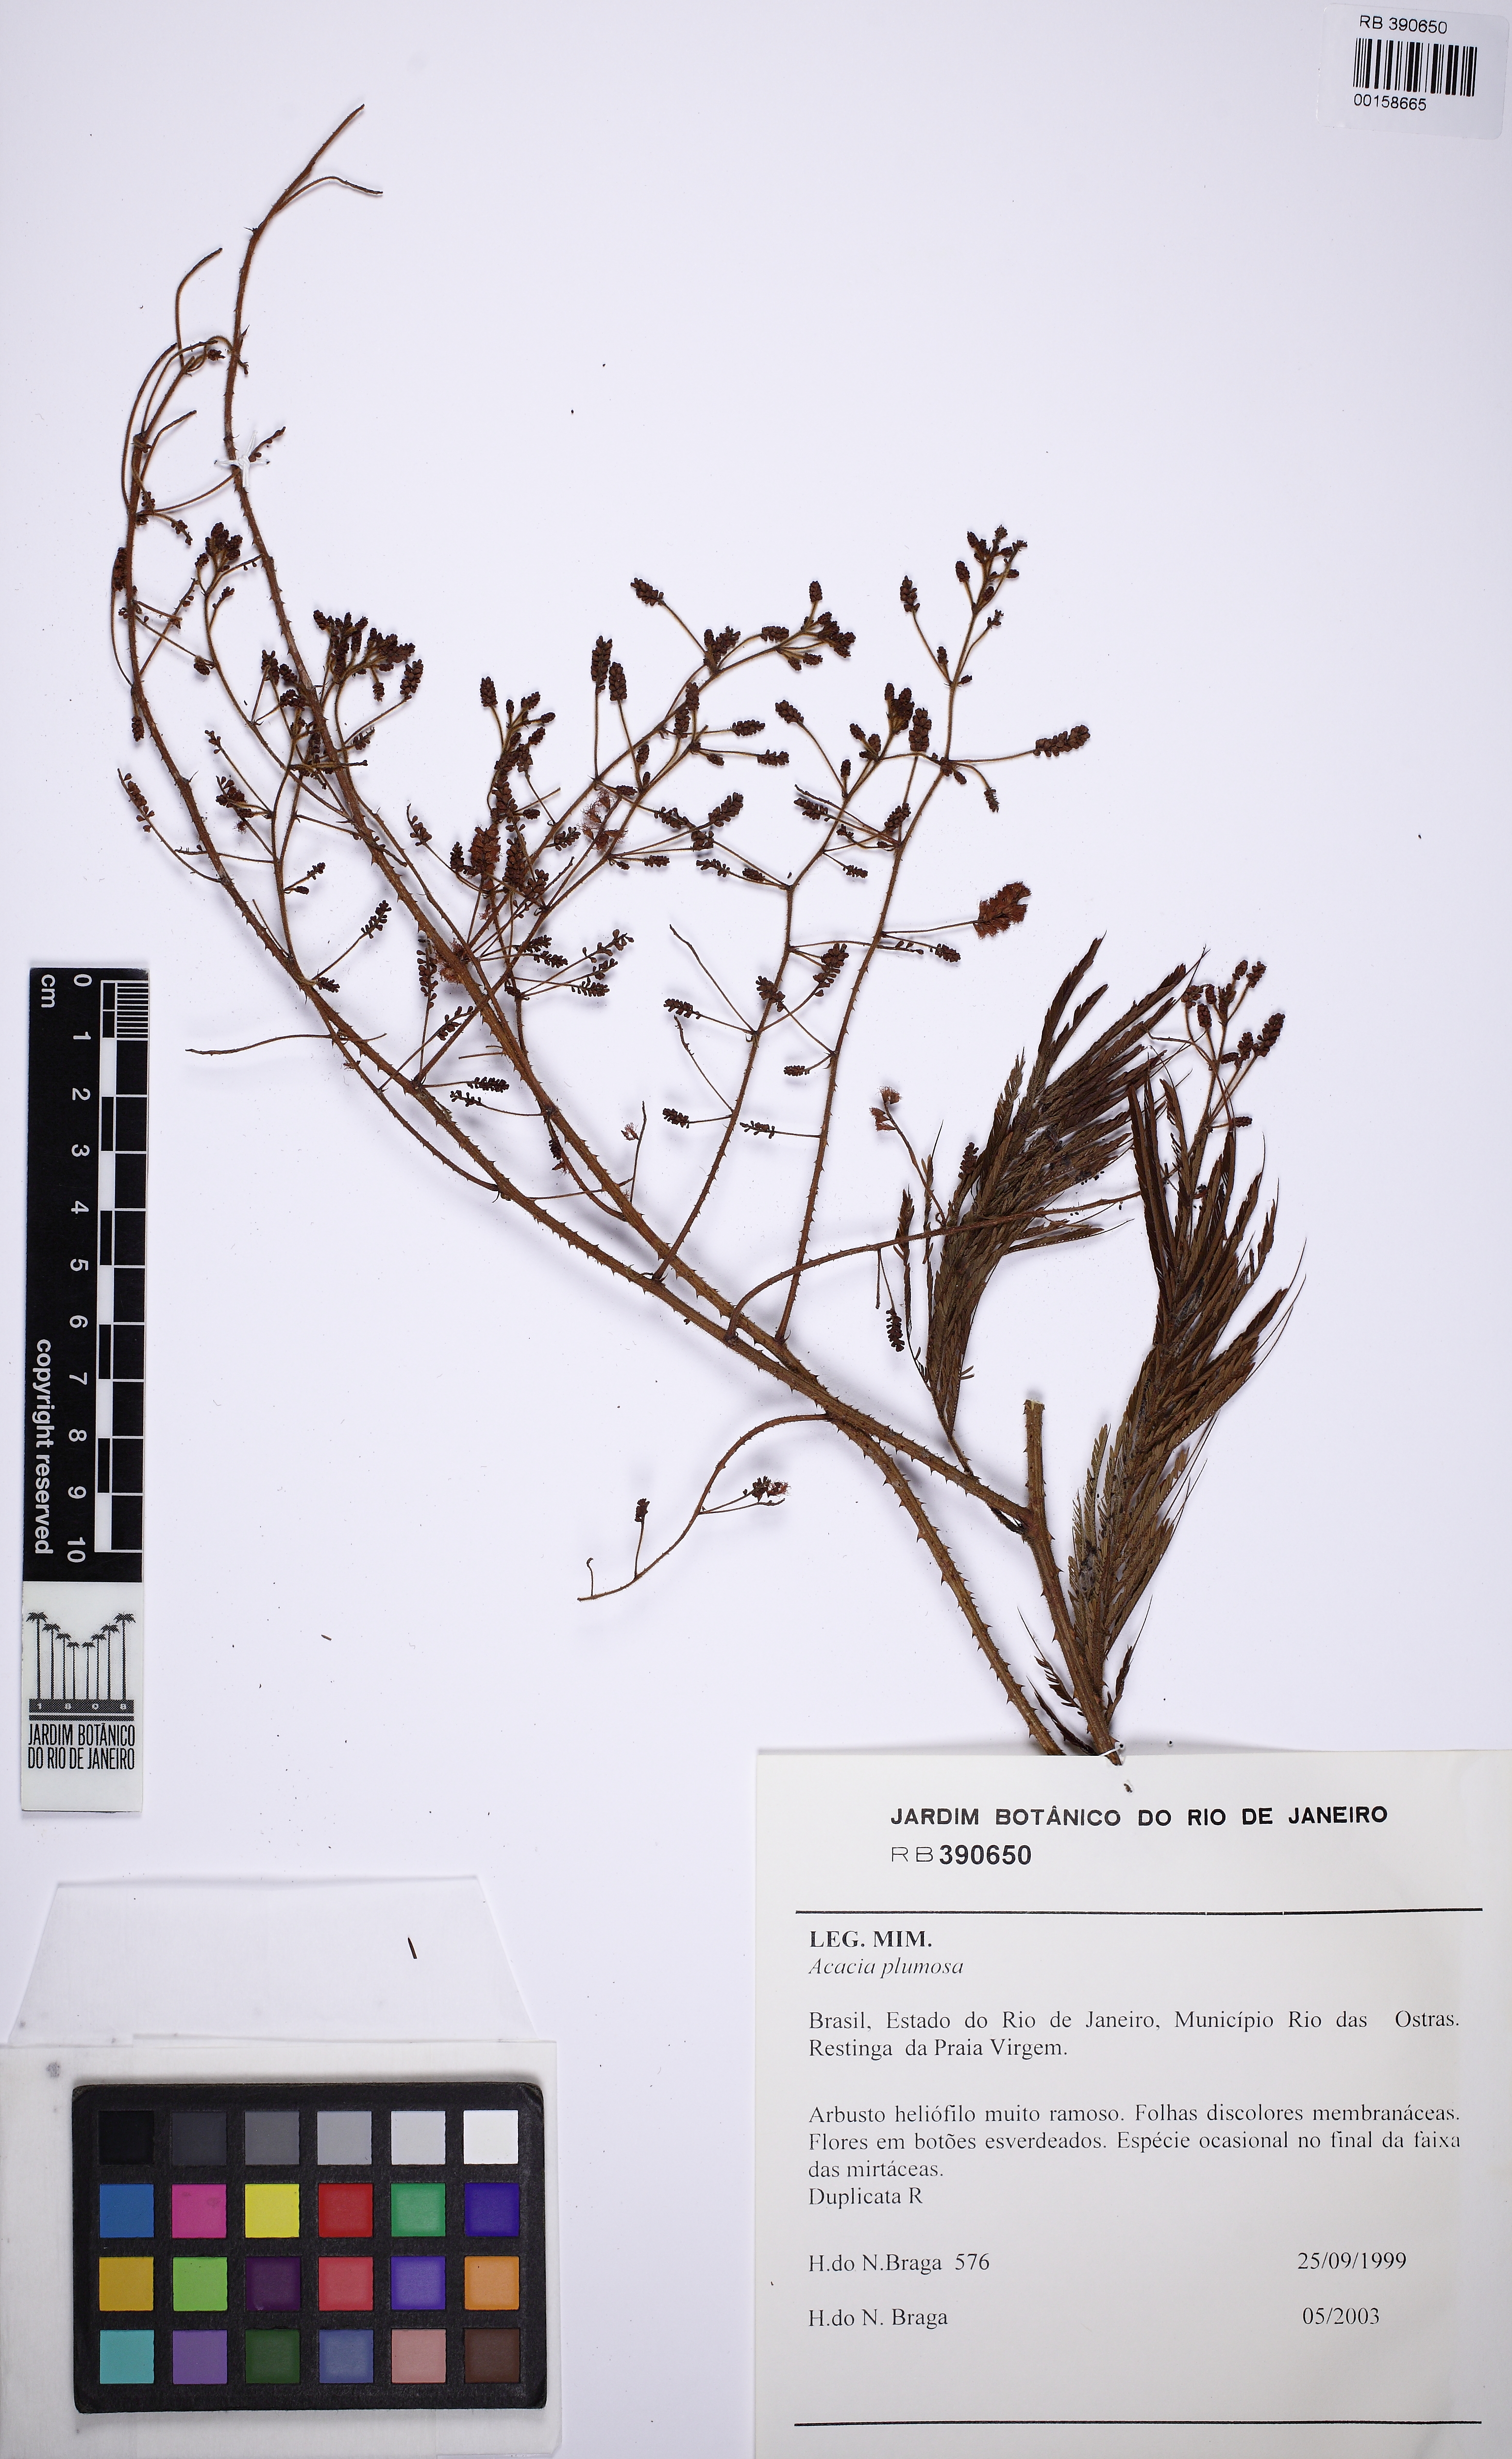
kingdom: Plantae
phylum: Tracheophyta
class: Magnoliopsida
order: Fabales
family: Fabaceae
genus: Senegalia
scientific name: Senegalia angico
